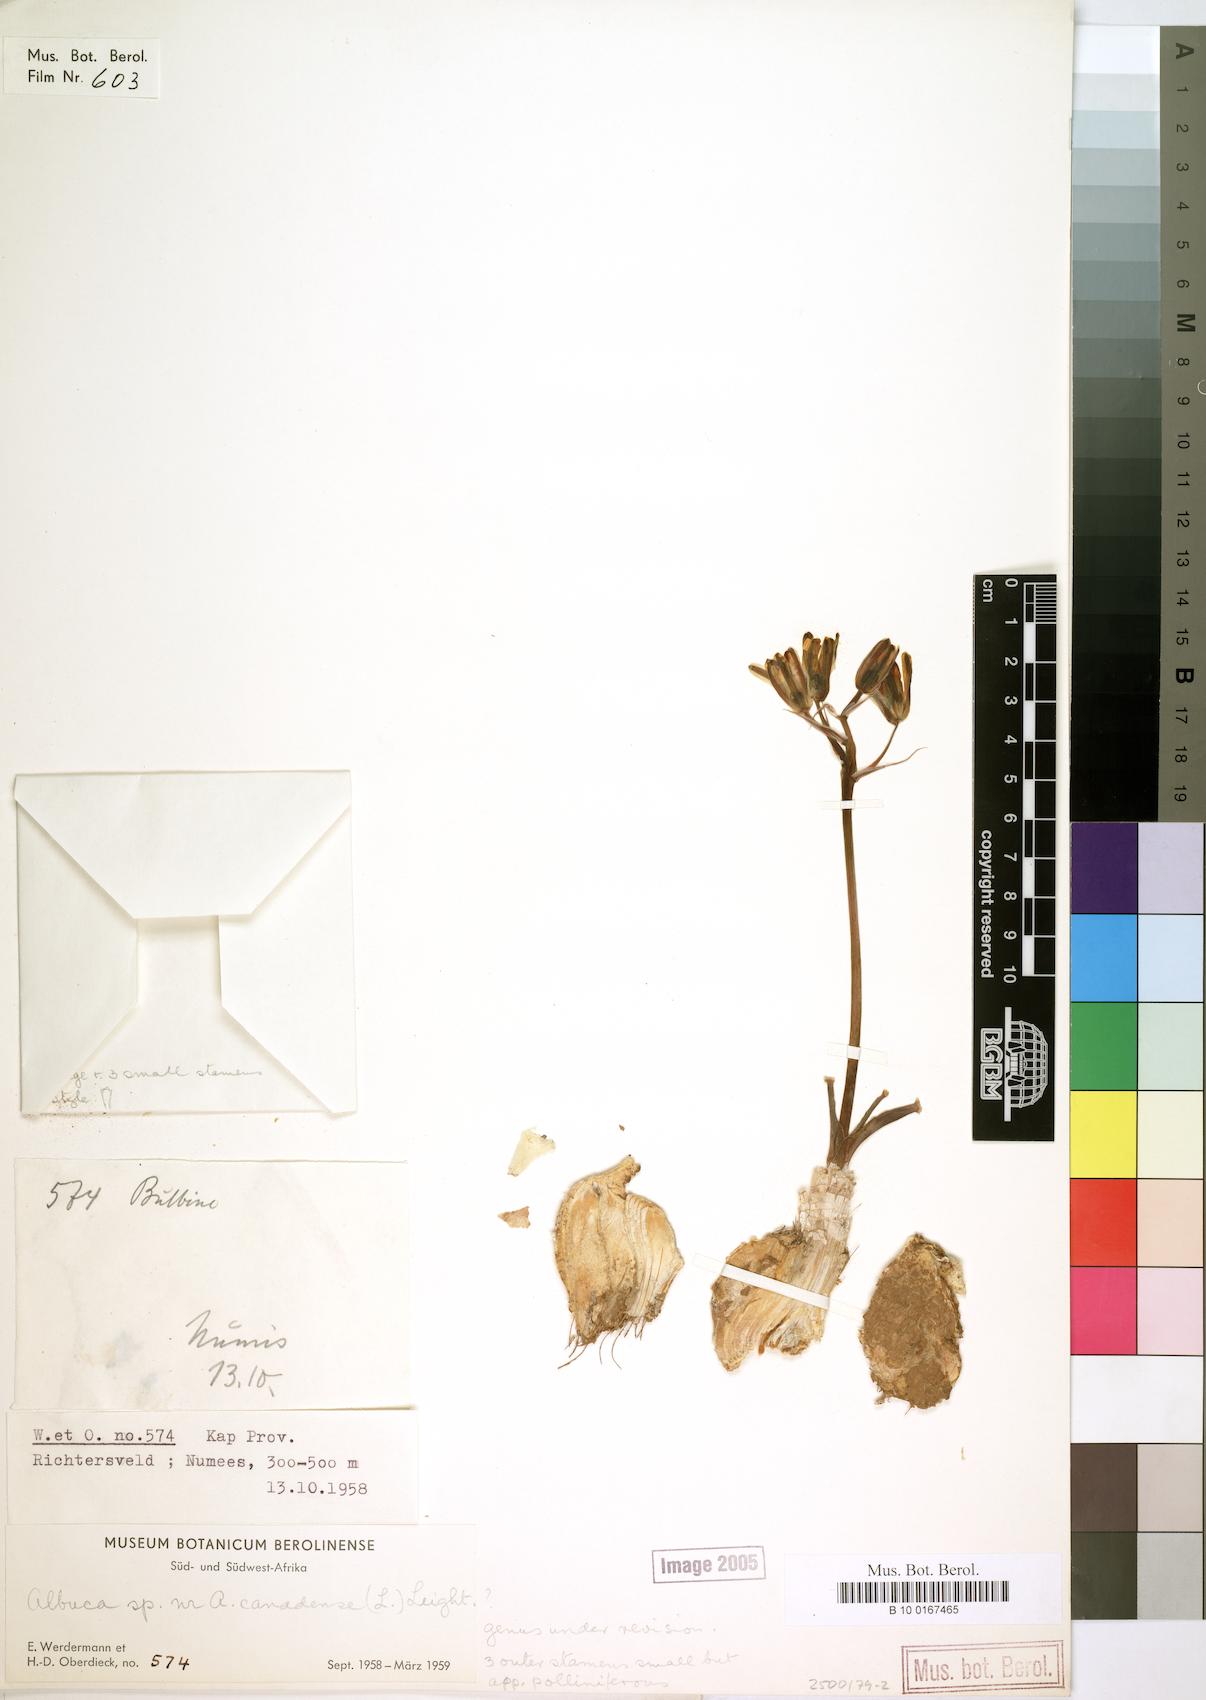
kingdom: Plantae
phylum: Tracheophyta
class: Liliopsida
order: Asparagales
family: Asparagaceae
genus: Albuca
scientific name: Albuca
